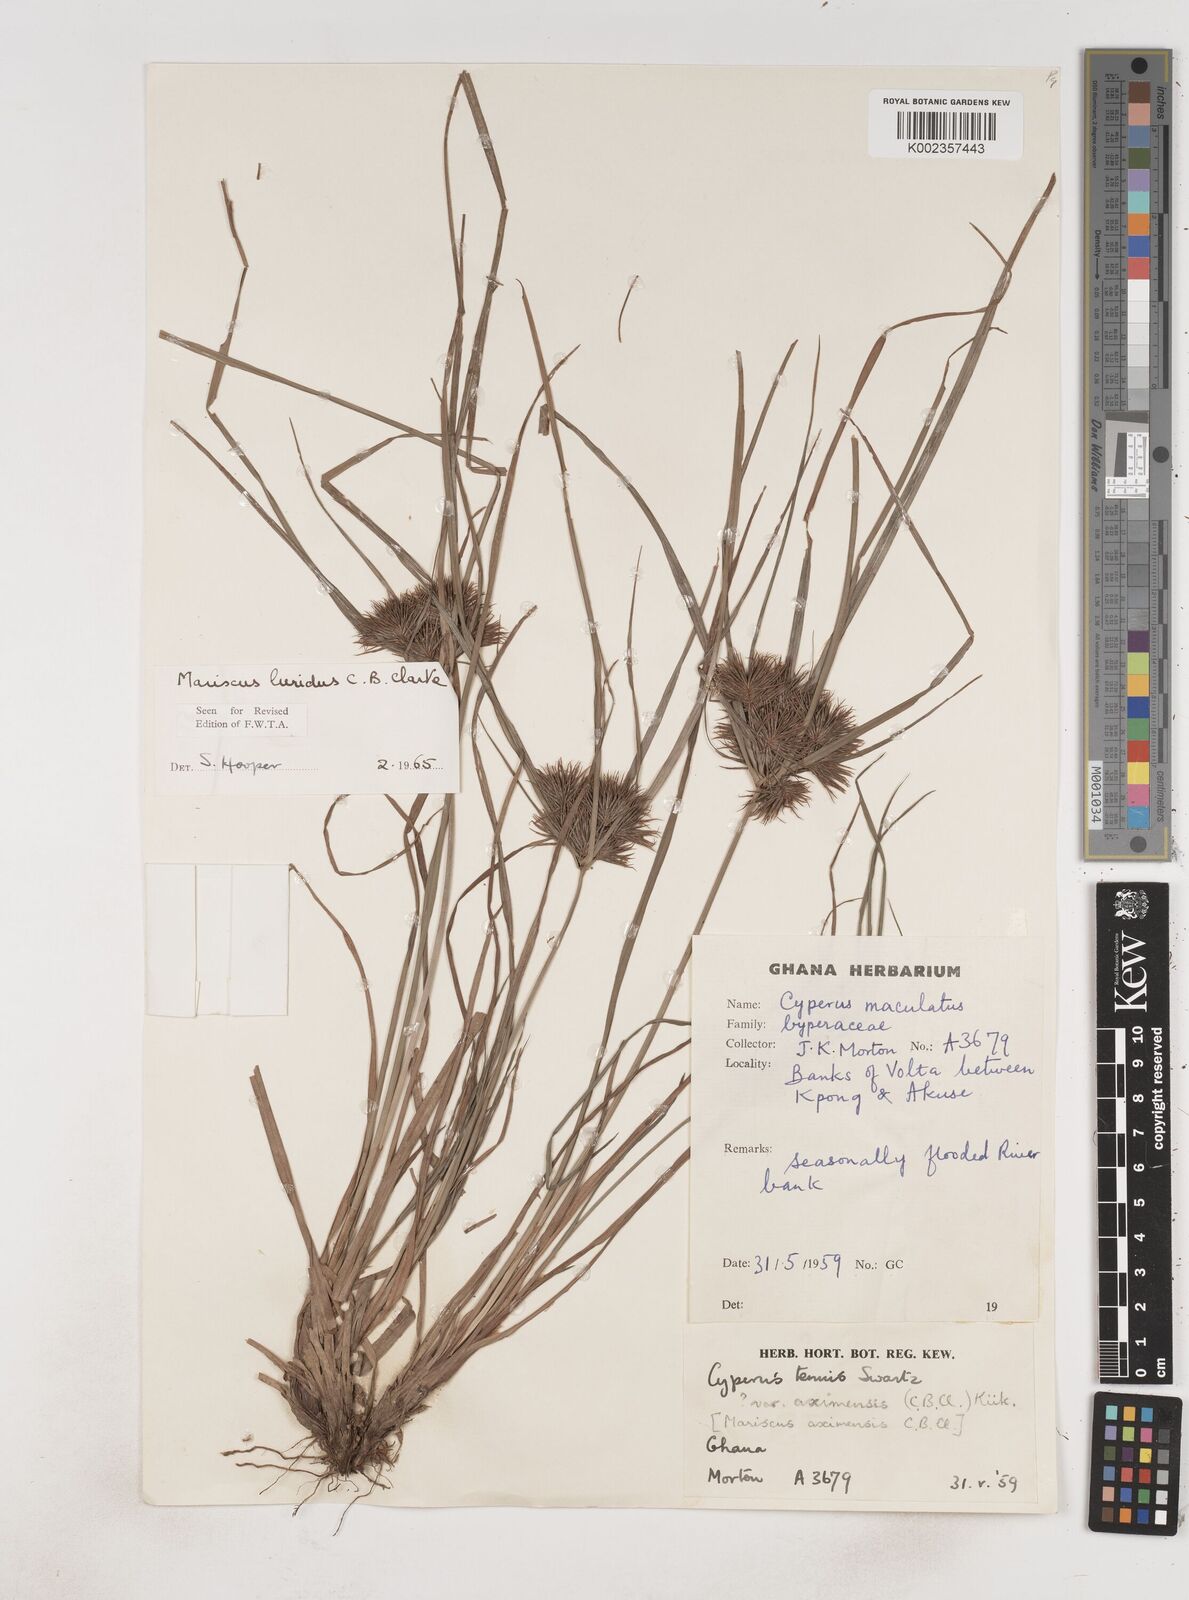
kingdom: Plantae
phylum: Tracheophyta
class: Liliopsida
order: Poales
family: Cyperaceae
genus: Cyperus
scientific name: Cyperus tenuis
